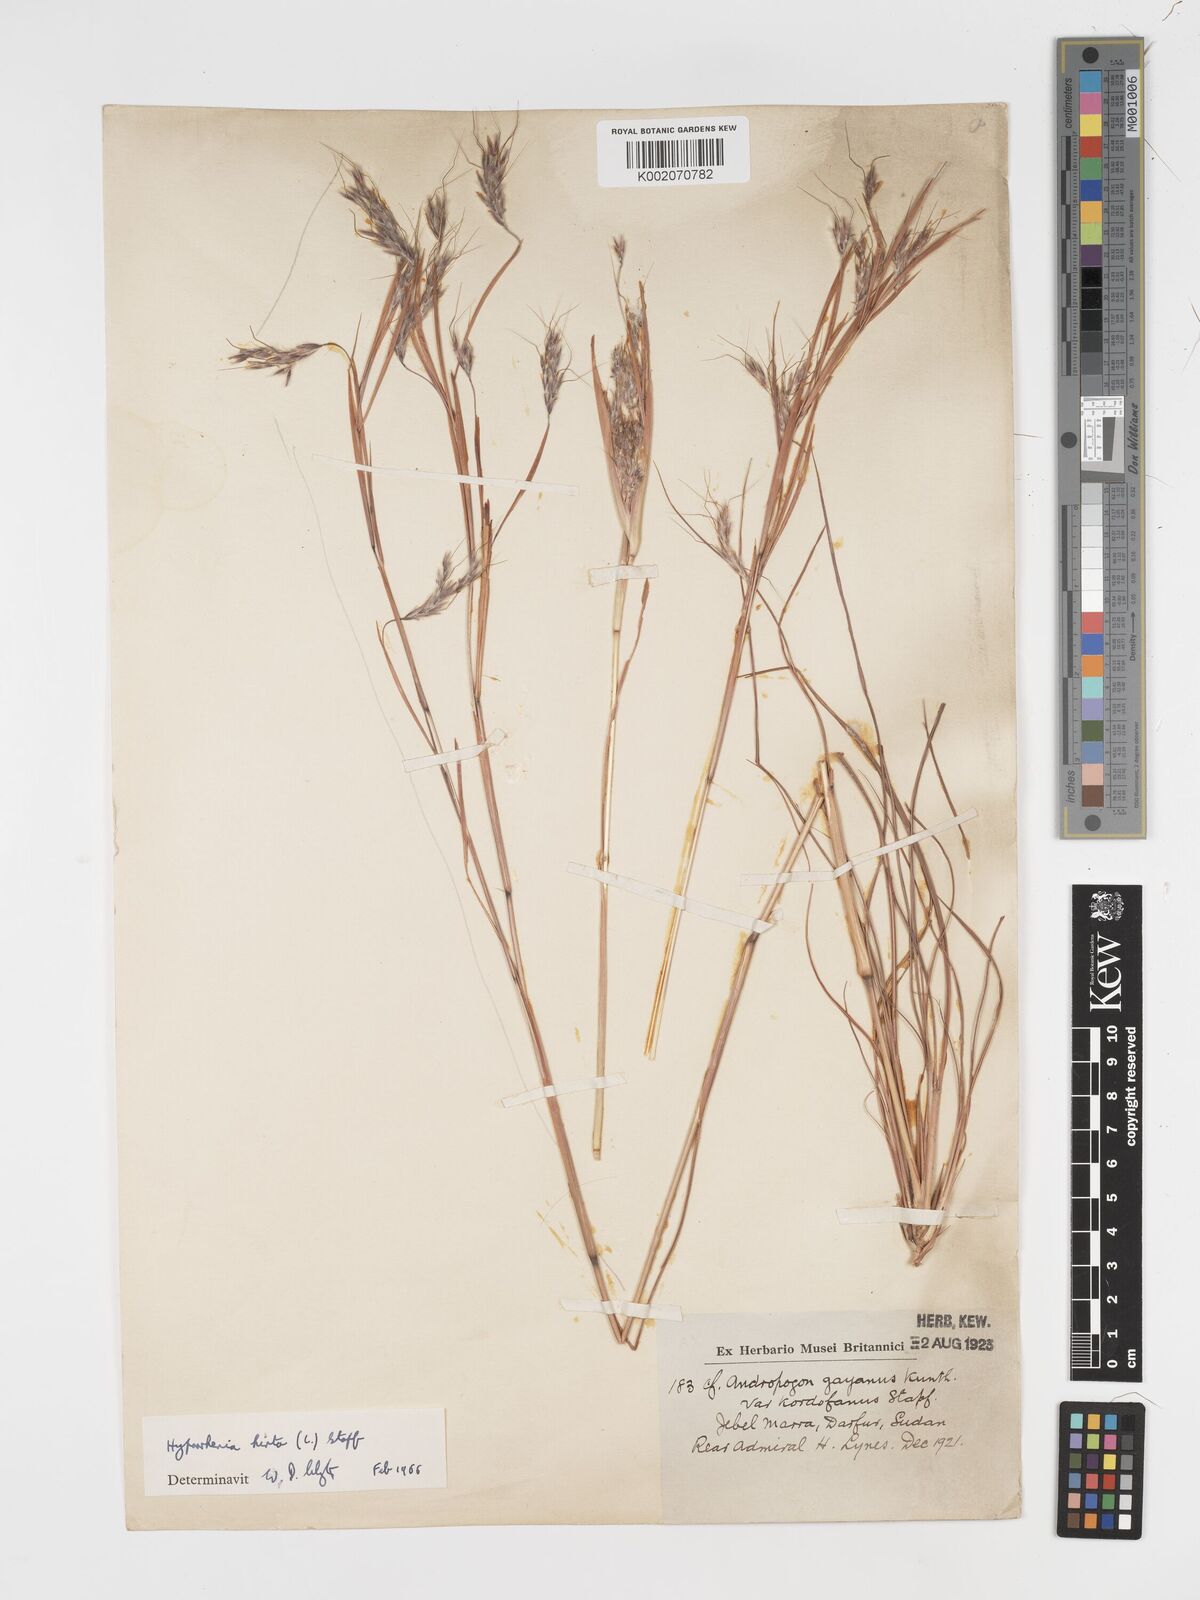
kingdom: Plantae
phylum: Tracheophyta
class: Liliopsida
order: Poales
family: Poaceae
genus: Hyparrhenia
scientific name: Hyparrhenia hirta
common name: Thatching grass
